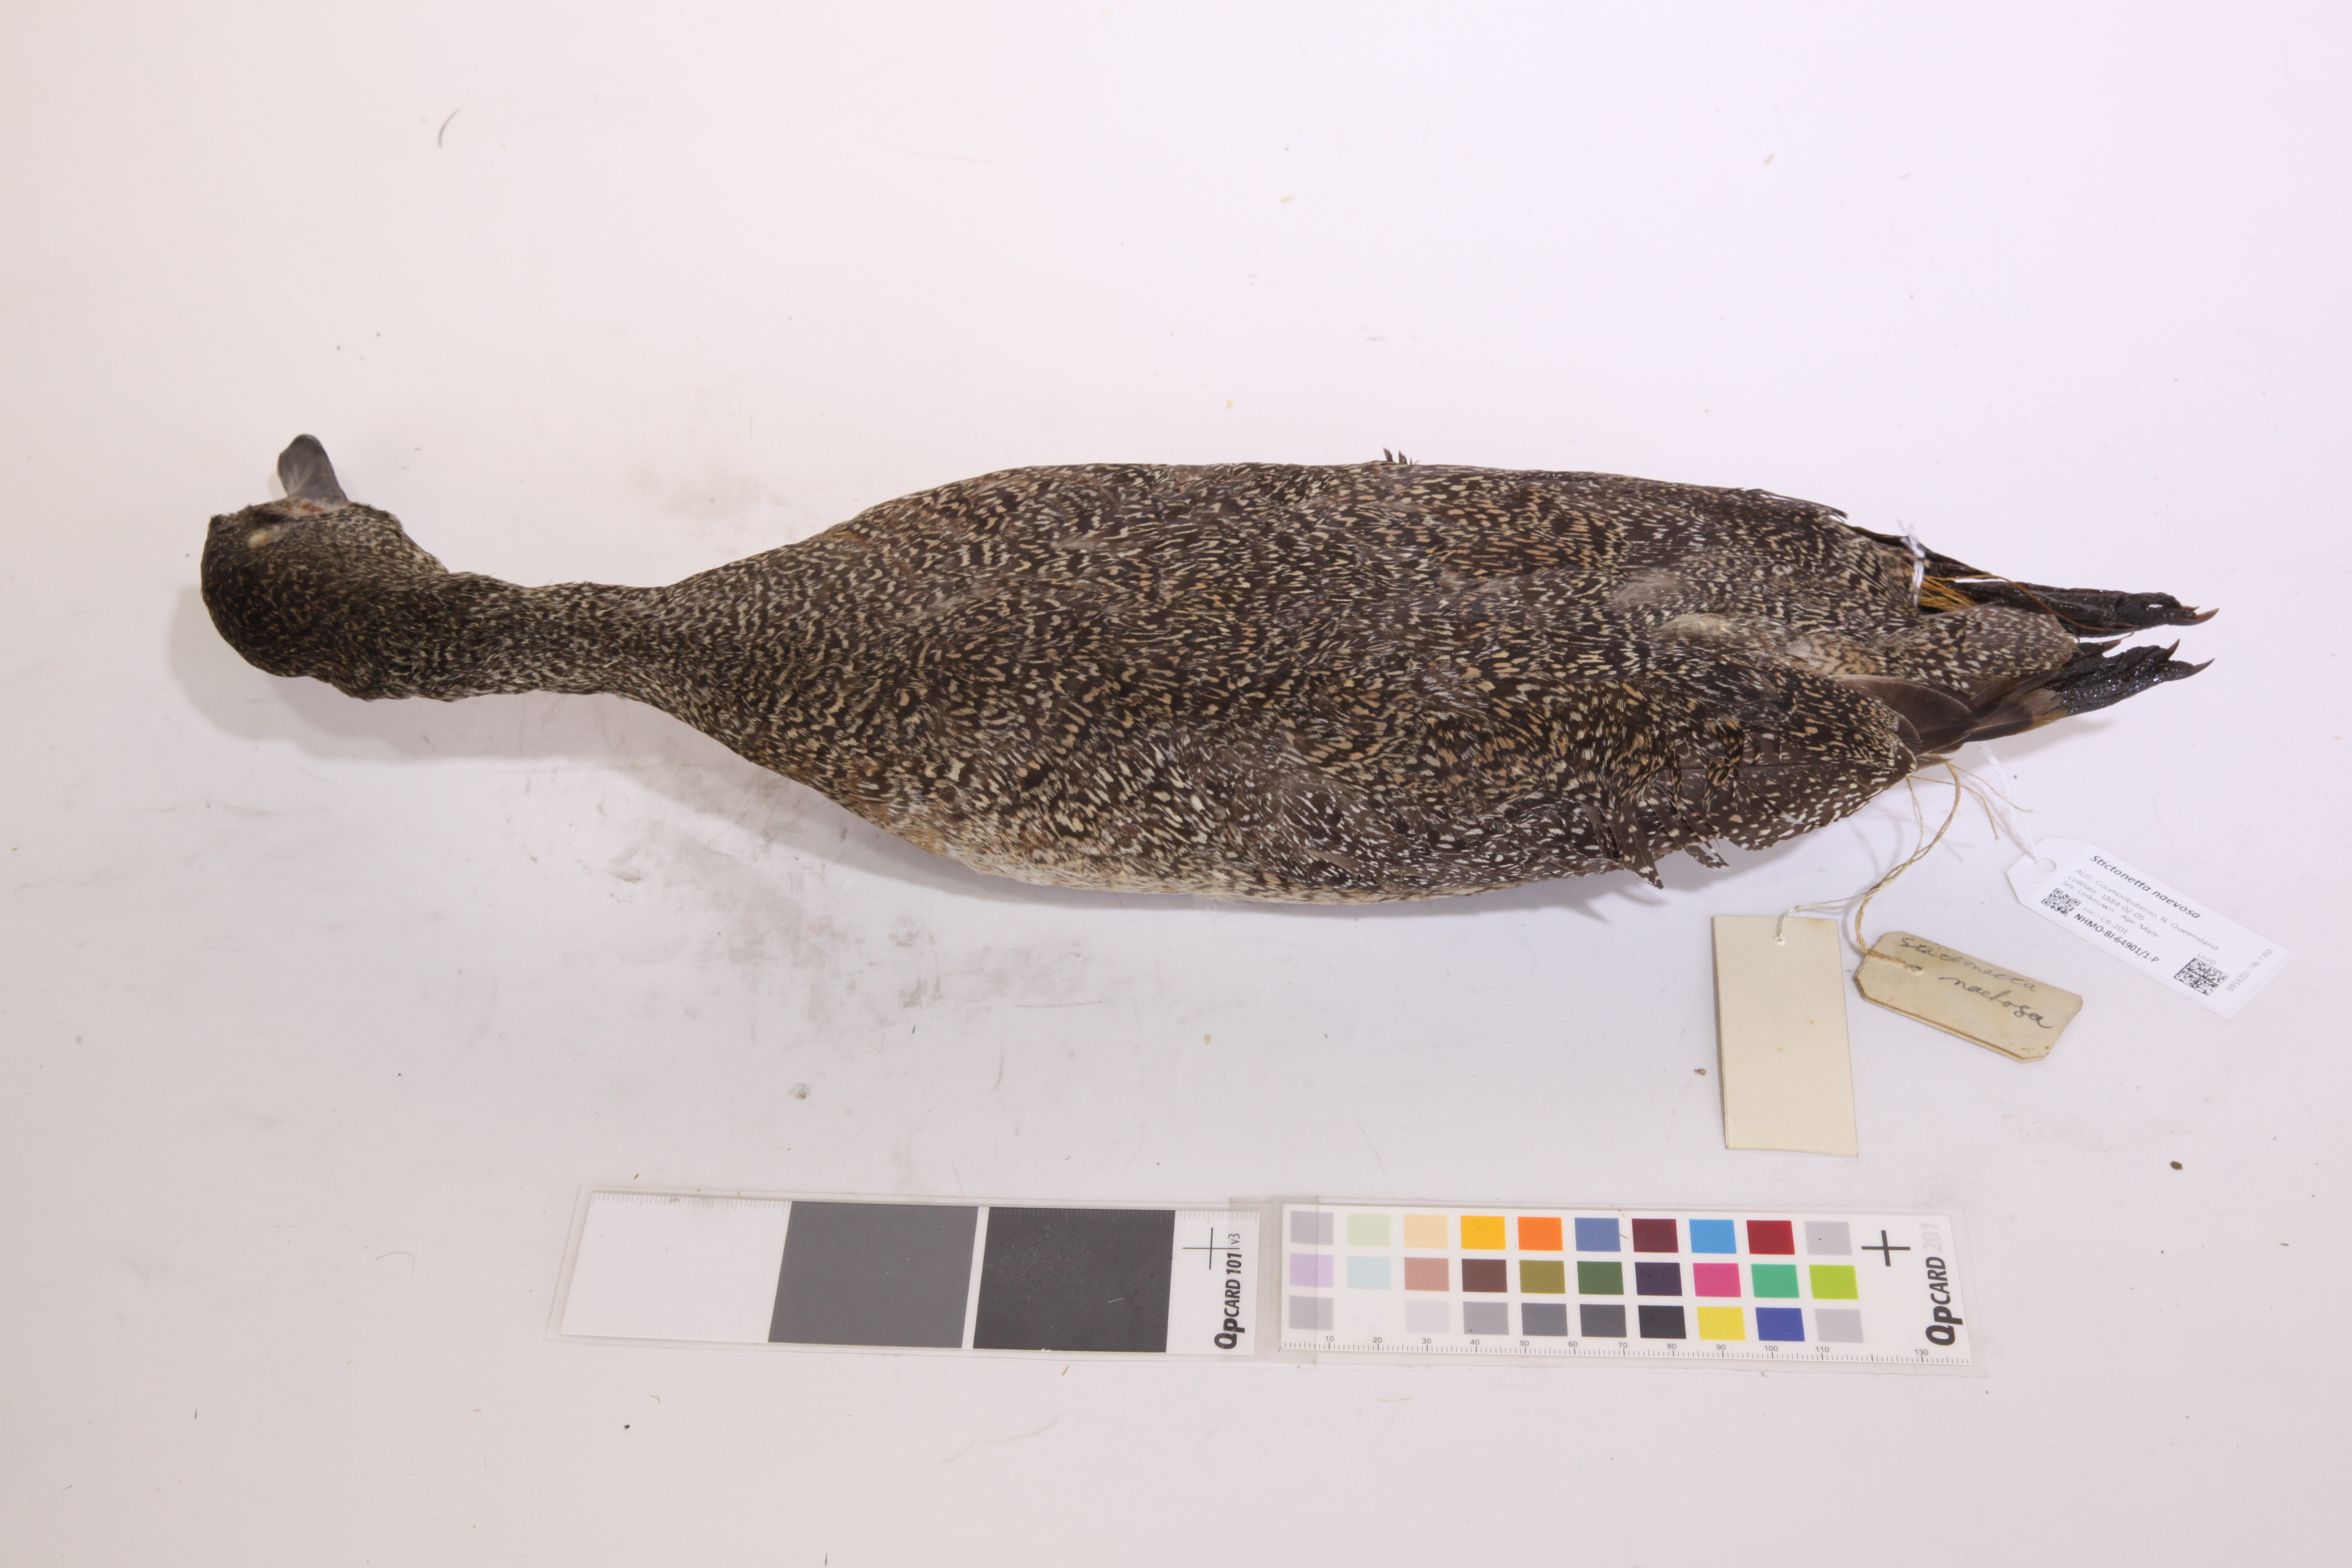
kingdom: Animalia
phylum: Chordata
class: Aves
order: Anseriformes
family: Anatidae
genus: Stictonetta
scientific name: Stictonetta naevosa
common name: Freckled duck
